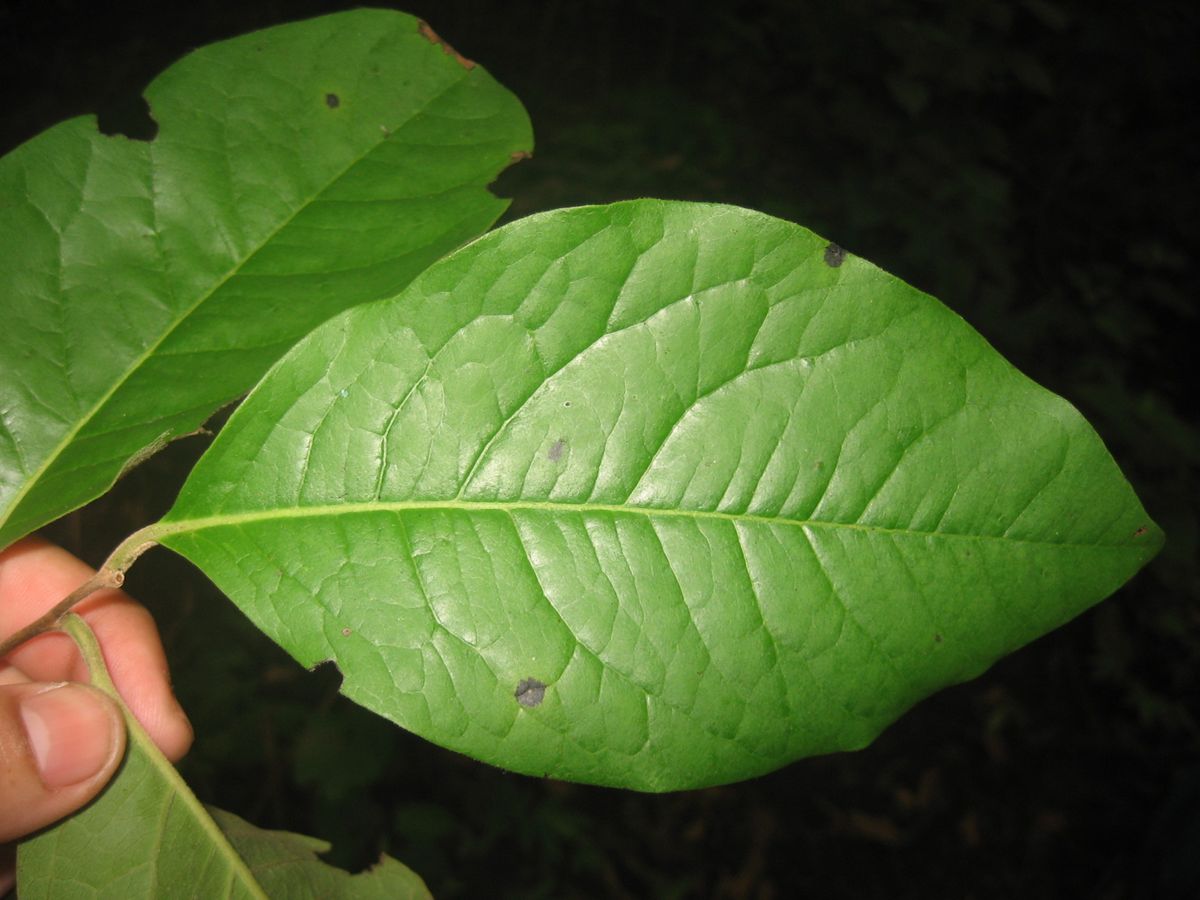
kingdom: Plantae
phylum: Tracheophyta
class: Magnoliopsida
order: Ericales
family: Ebenaceae
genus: Diospyros
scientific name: Diospyros rekoi
